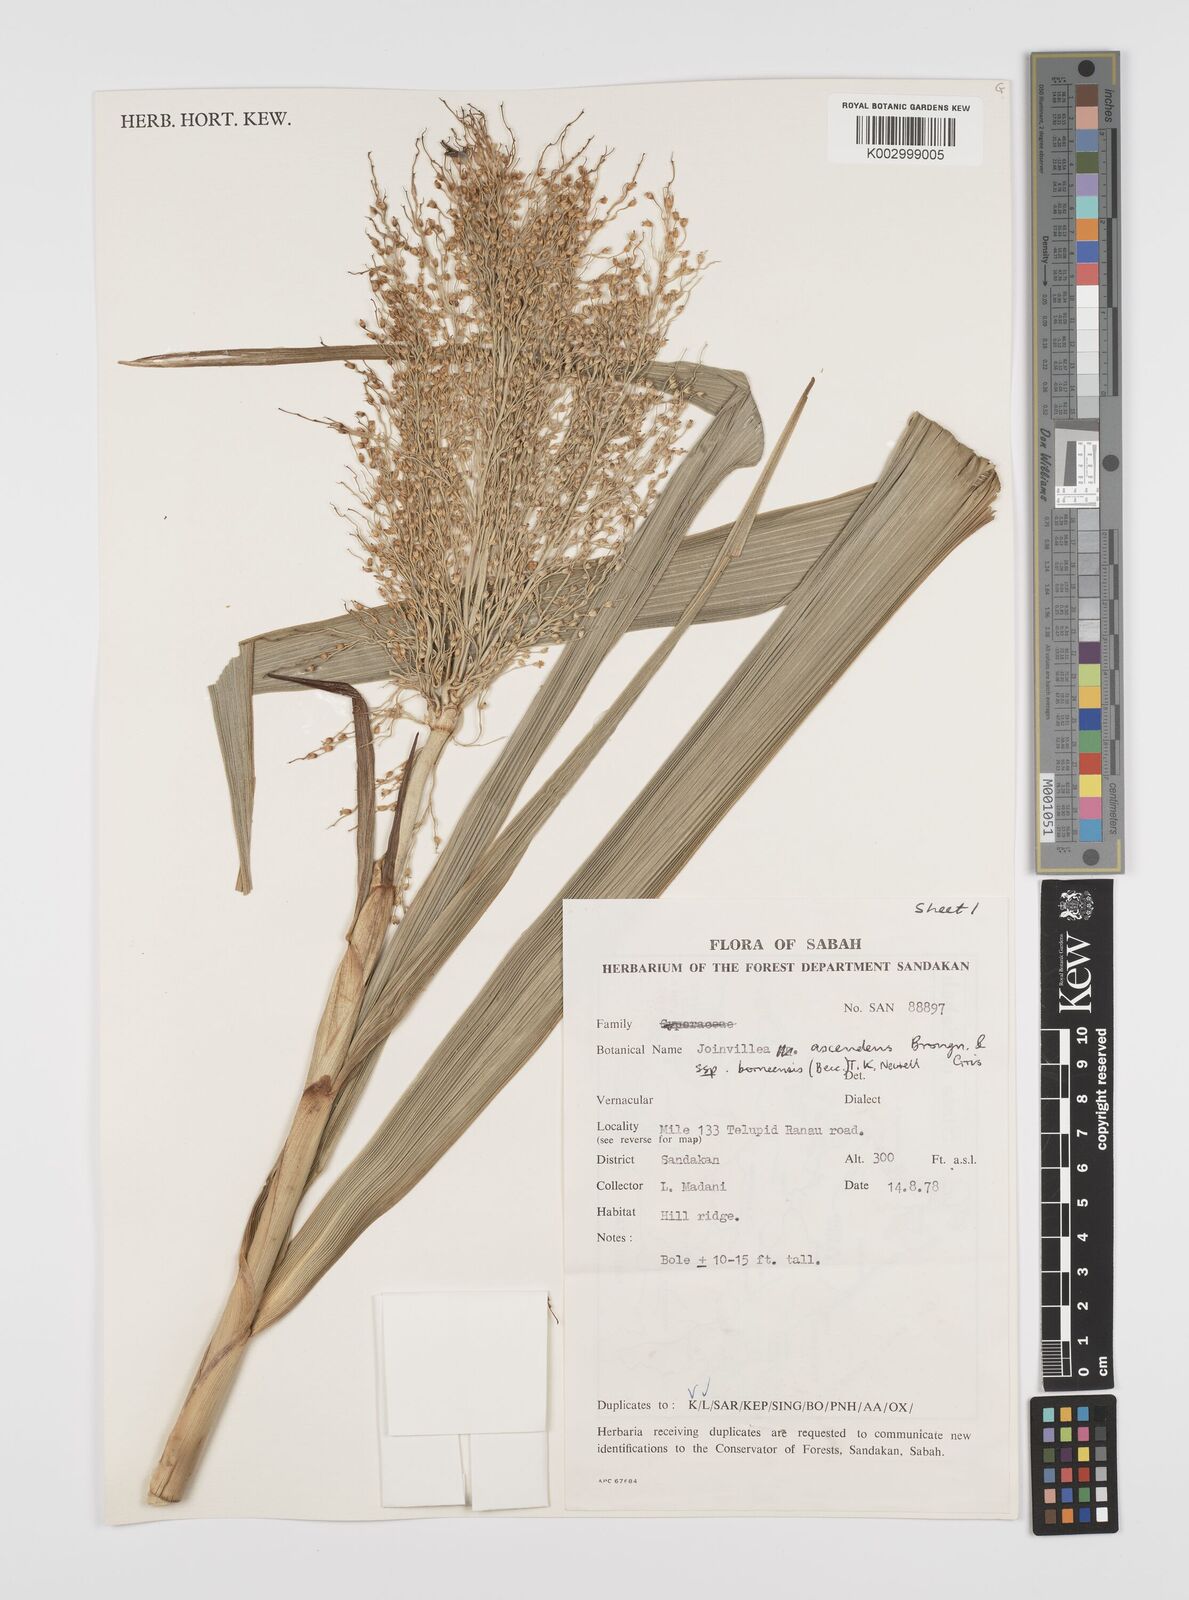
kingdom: Plantae
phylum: Tracheophyta
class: Liliopsida
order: Poales
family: Joinvilleaceae
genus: Joinvillea
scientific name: Joinvillea borneensis
